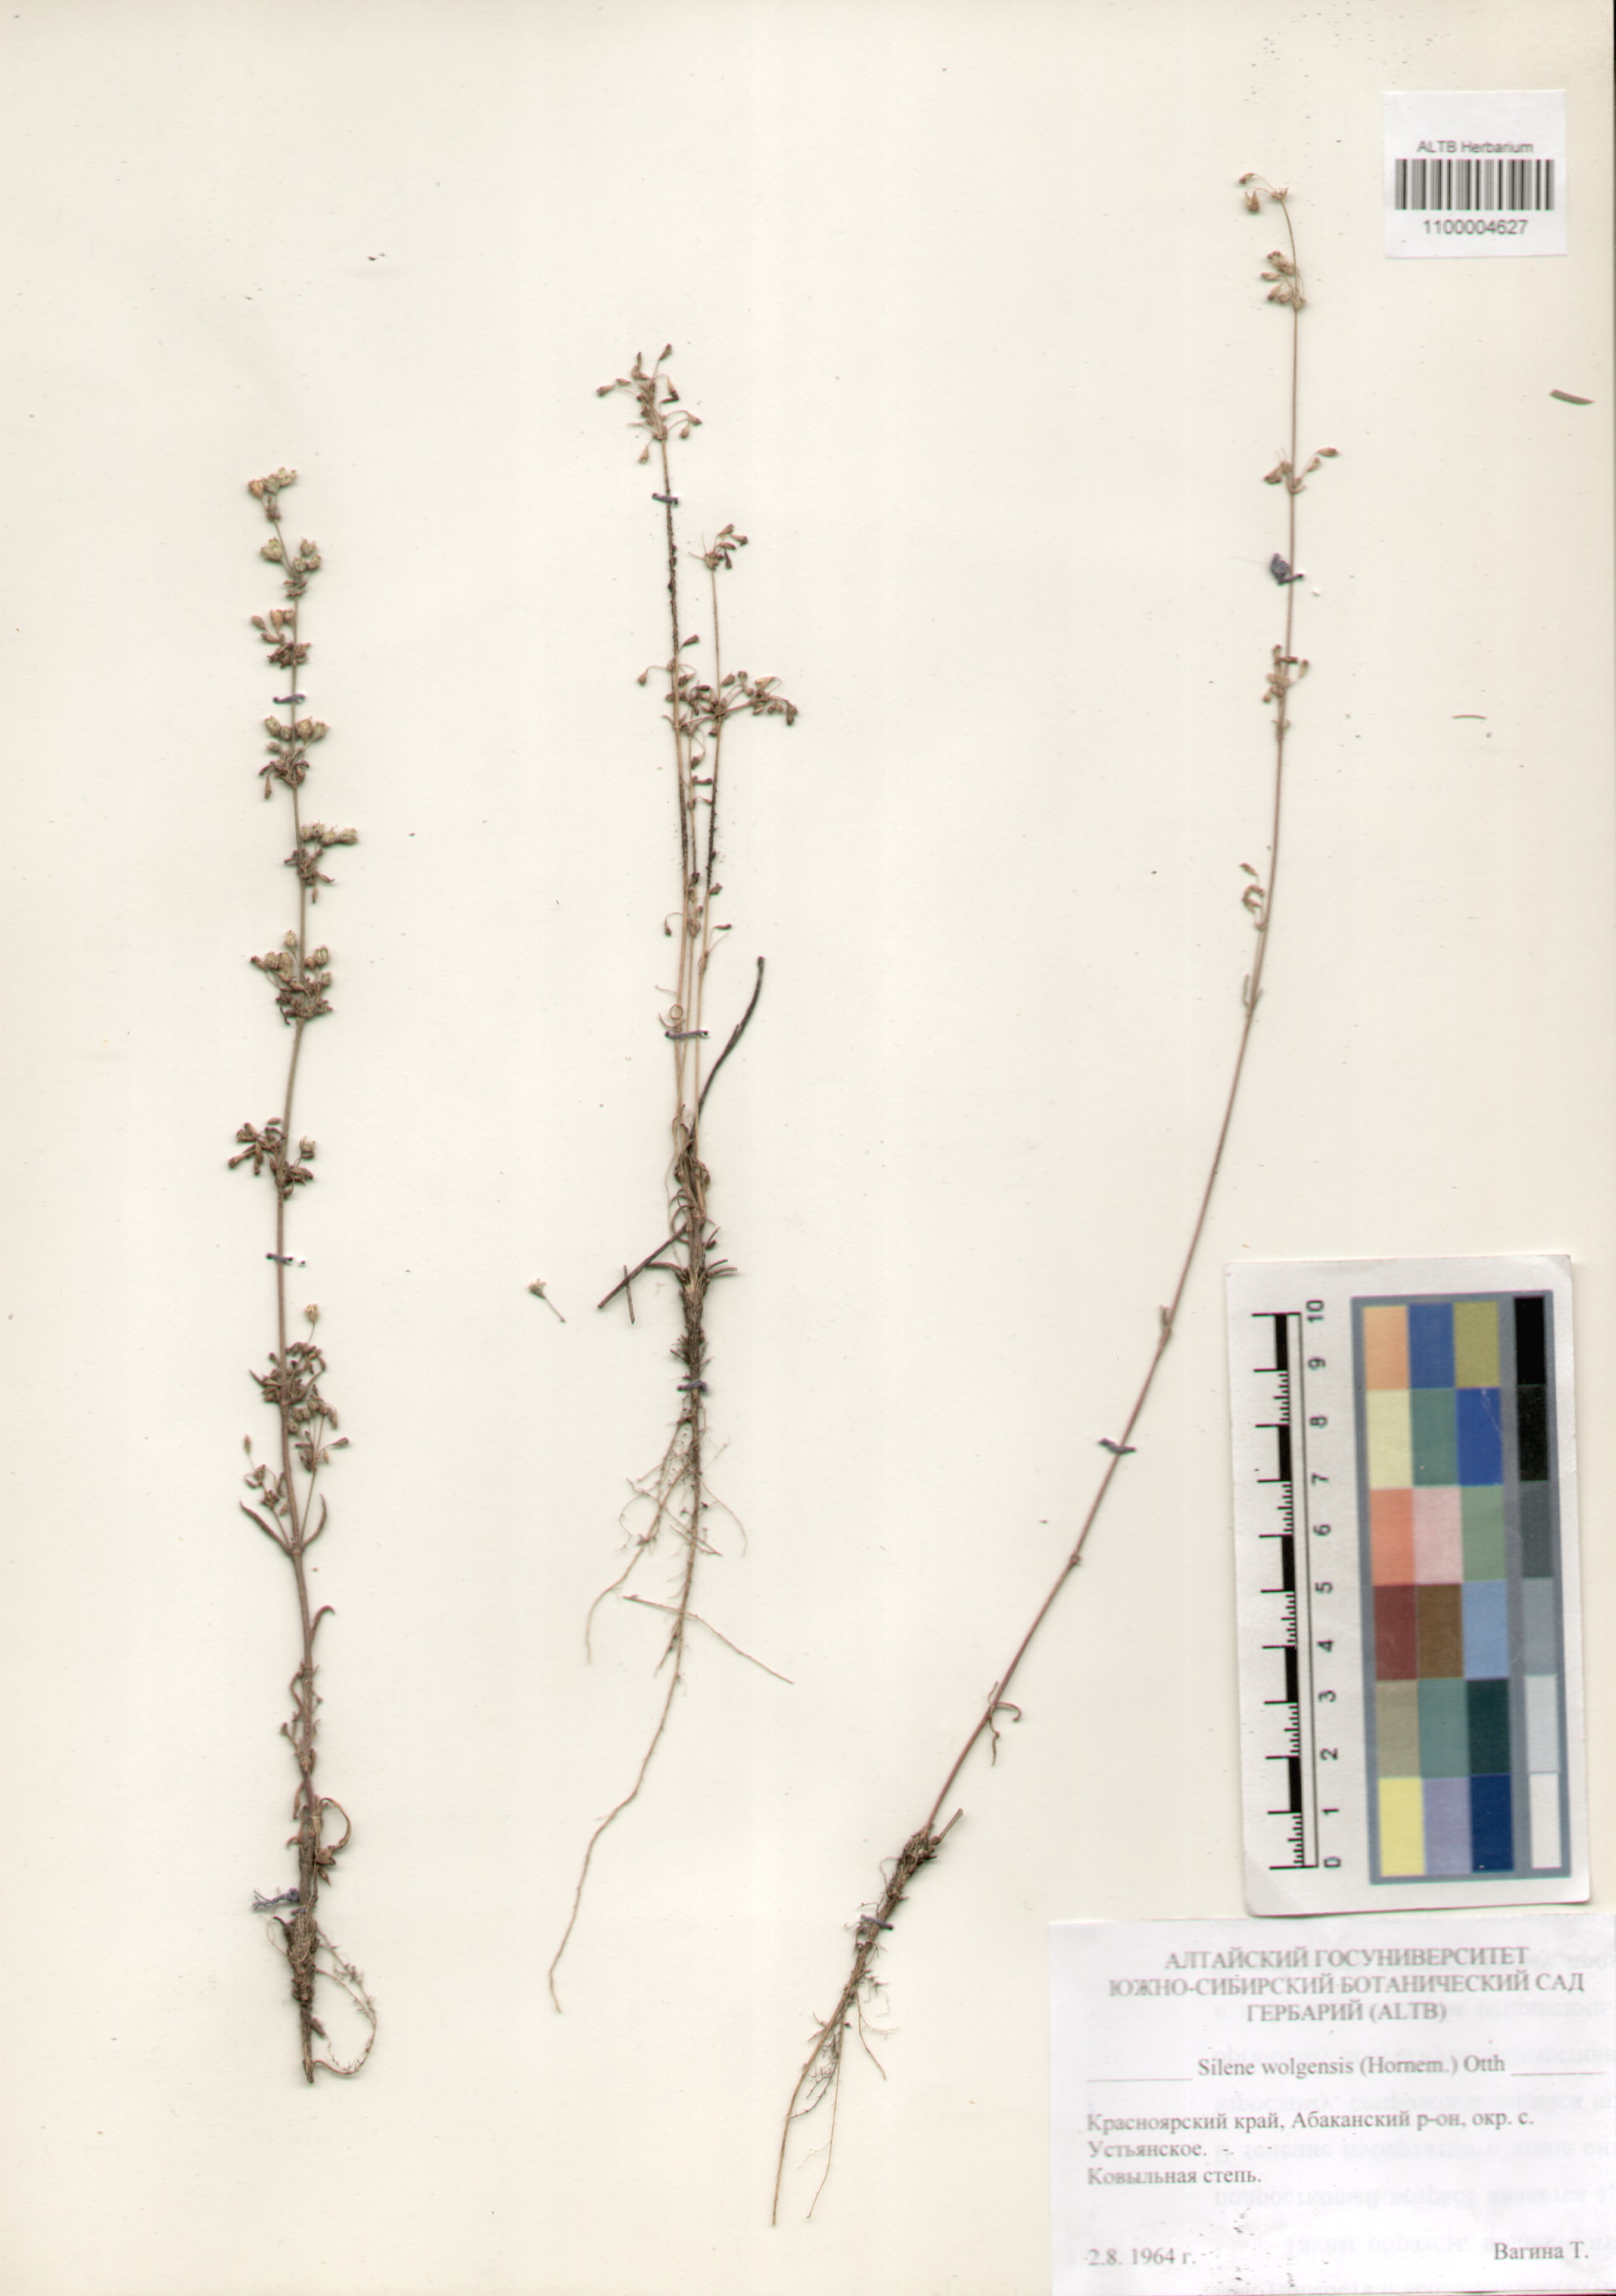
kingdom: Plantae
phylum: Tracheophyta
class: Magnoliopsida
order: Caryophyllales
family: Caryophyllaceae
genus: Silene
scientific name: Silene wolgensis
